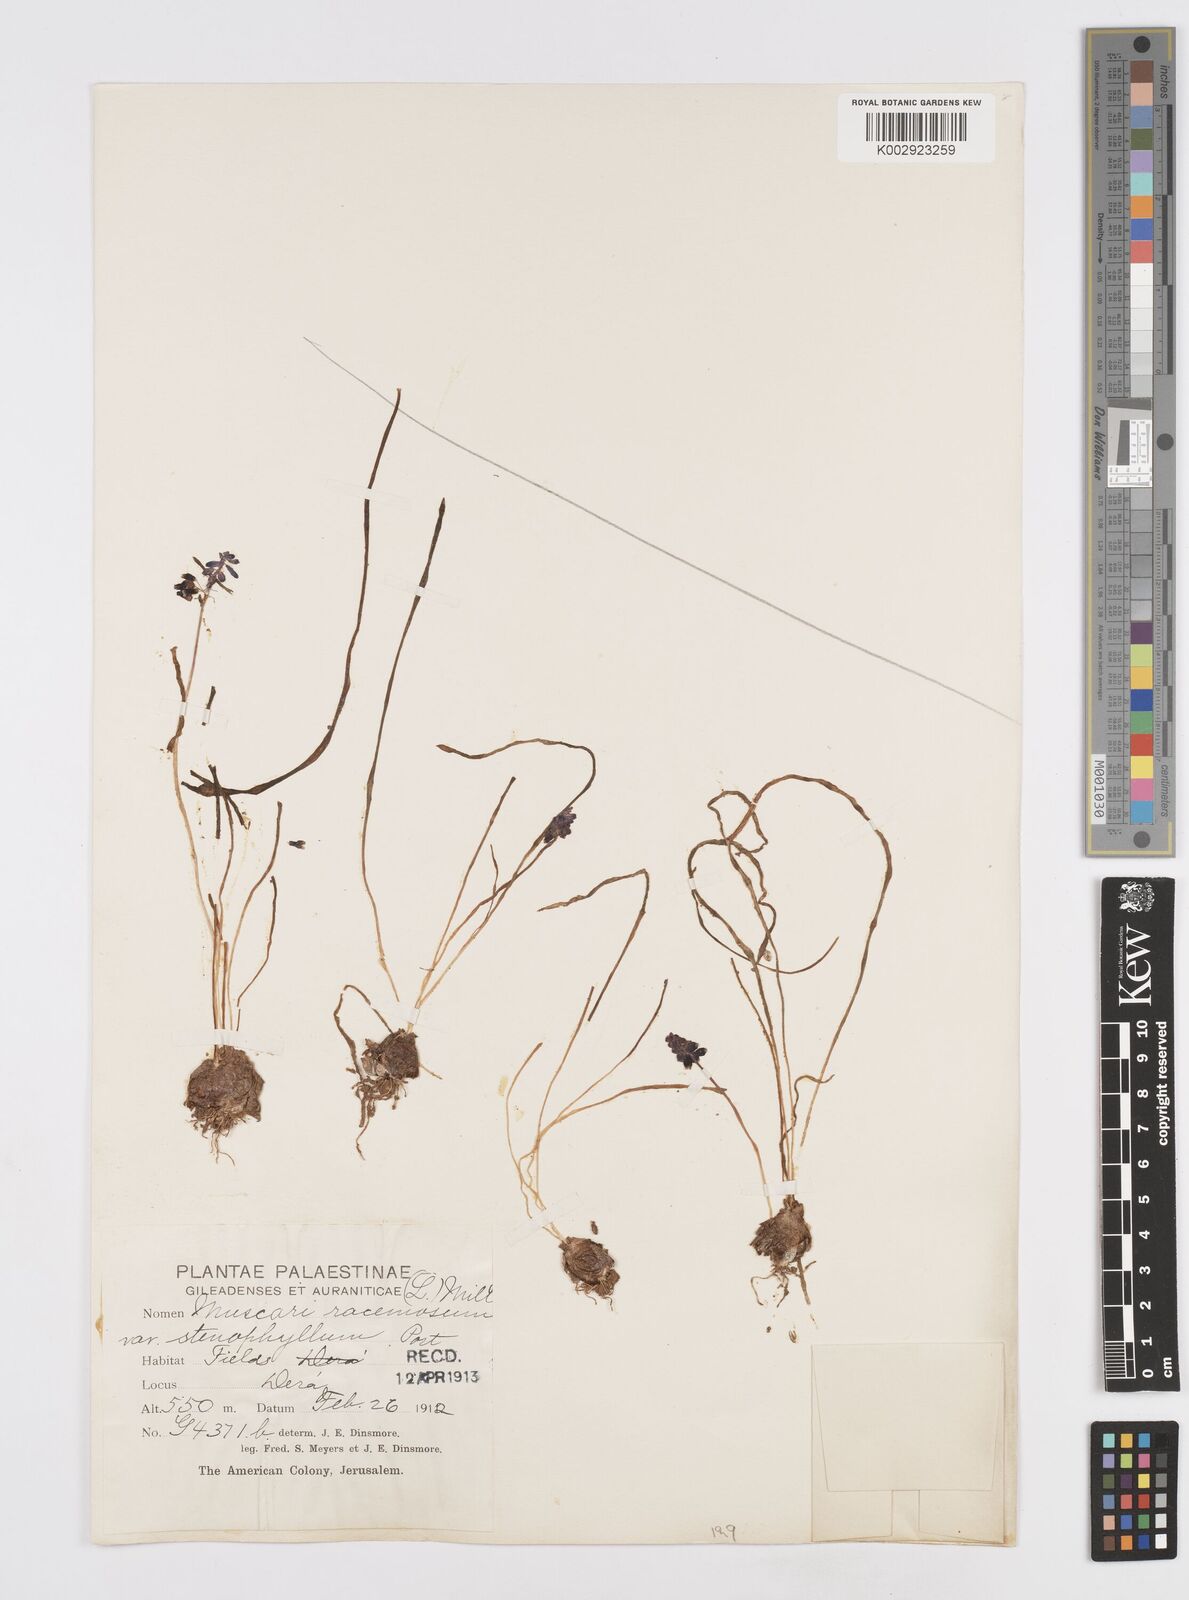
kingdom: Plantae
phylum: Tracheophyta
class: Liliopsida
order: Asparagales
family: Asparagaceae
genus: Muscari
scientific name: Muscari neglectum
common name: Grape-hyacinth
